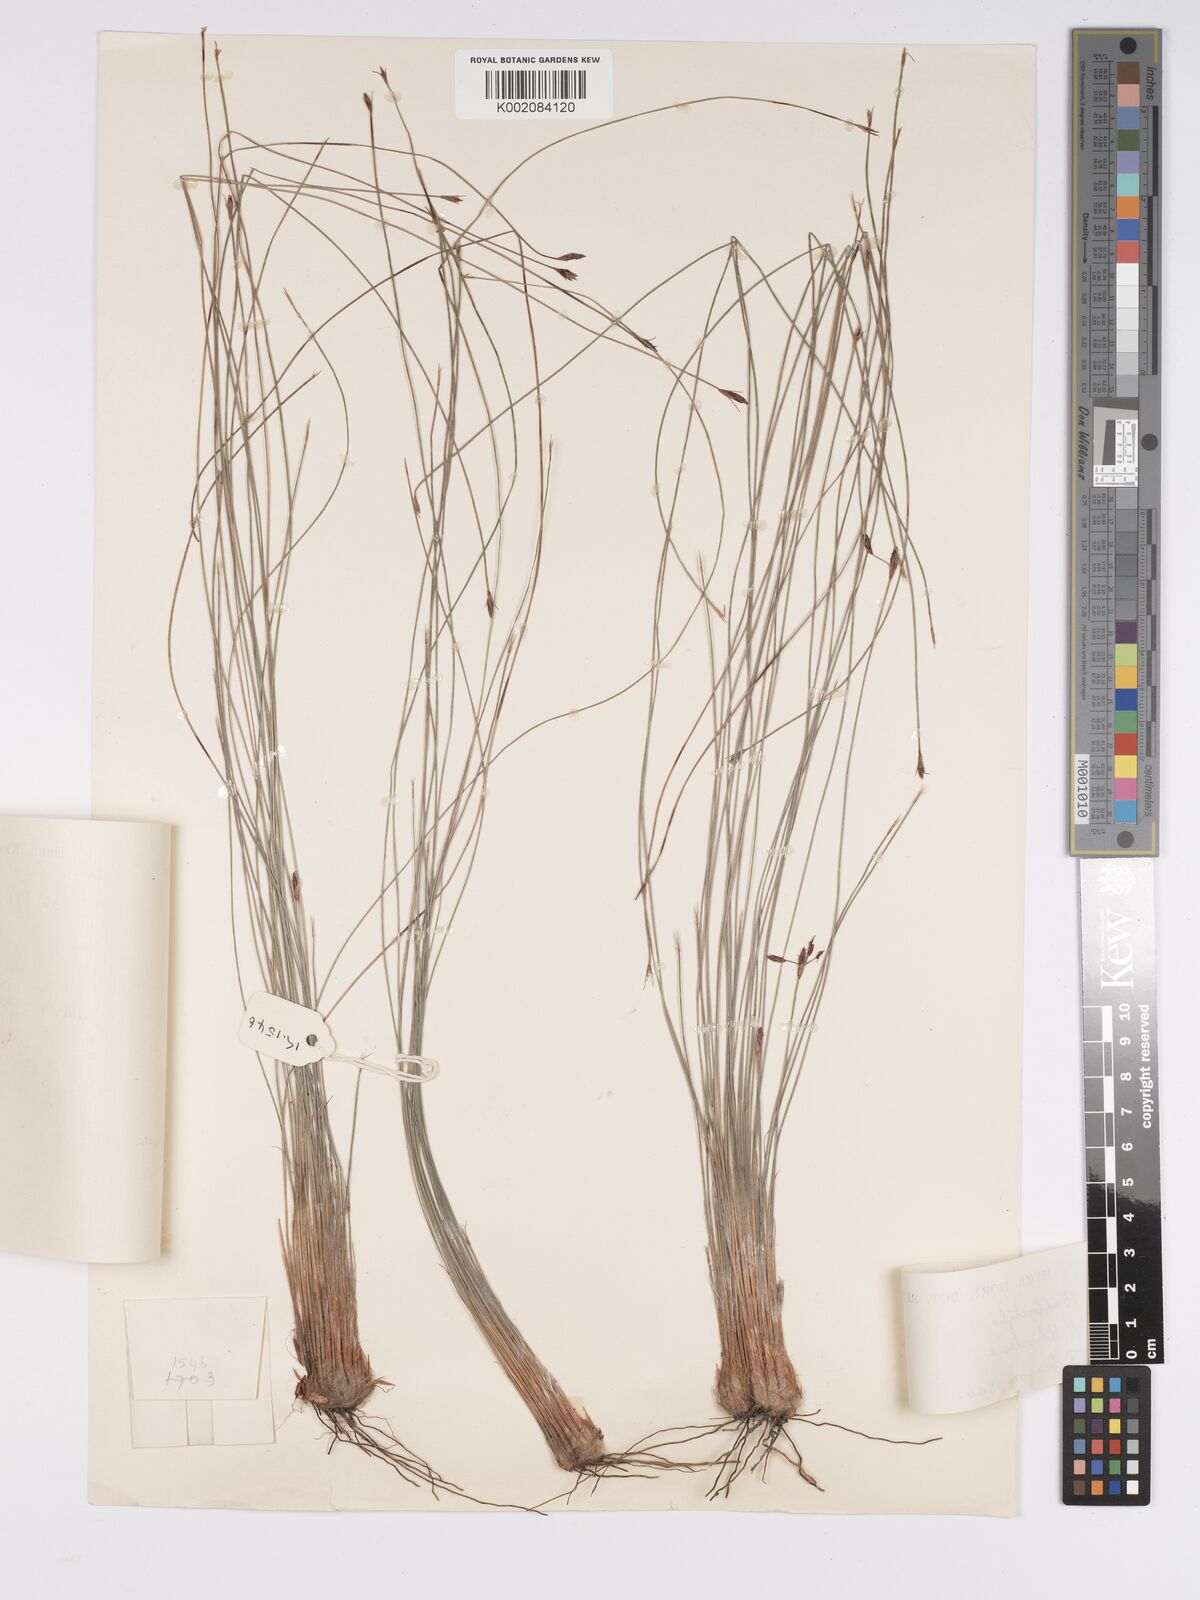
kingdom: Plantae
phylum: Tracheophyta
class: Liliopsida
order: Poales
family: Cyperaceae
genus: Bulbostylis
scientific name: Bulbostylis
